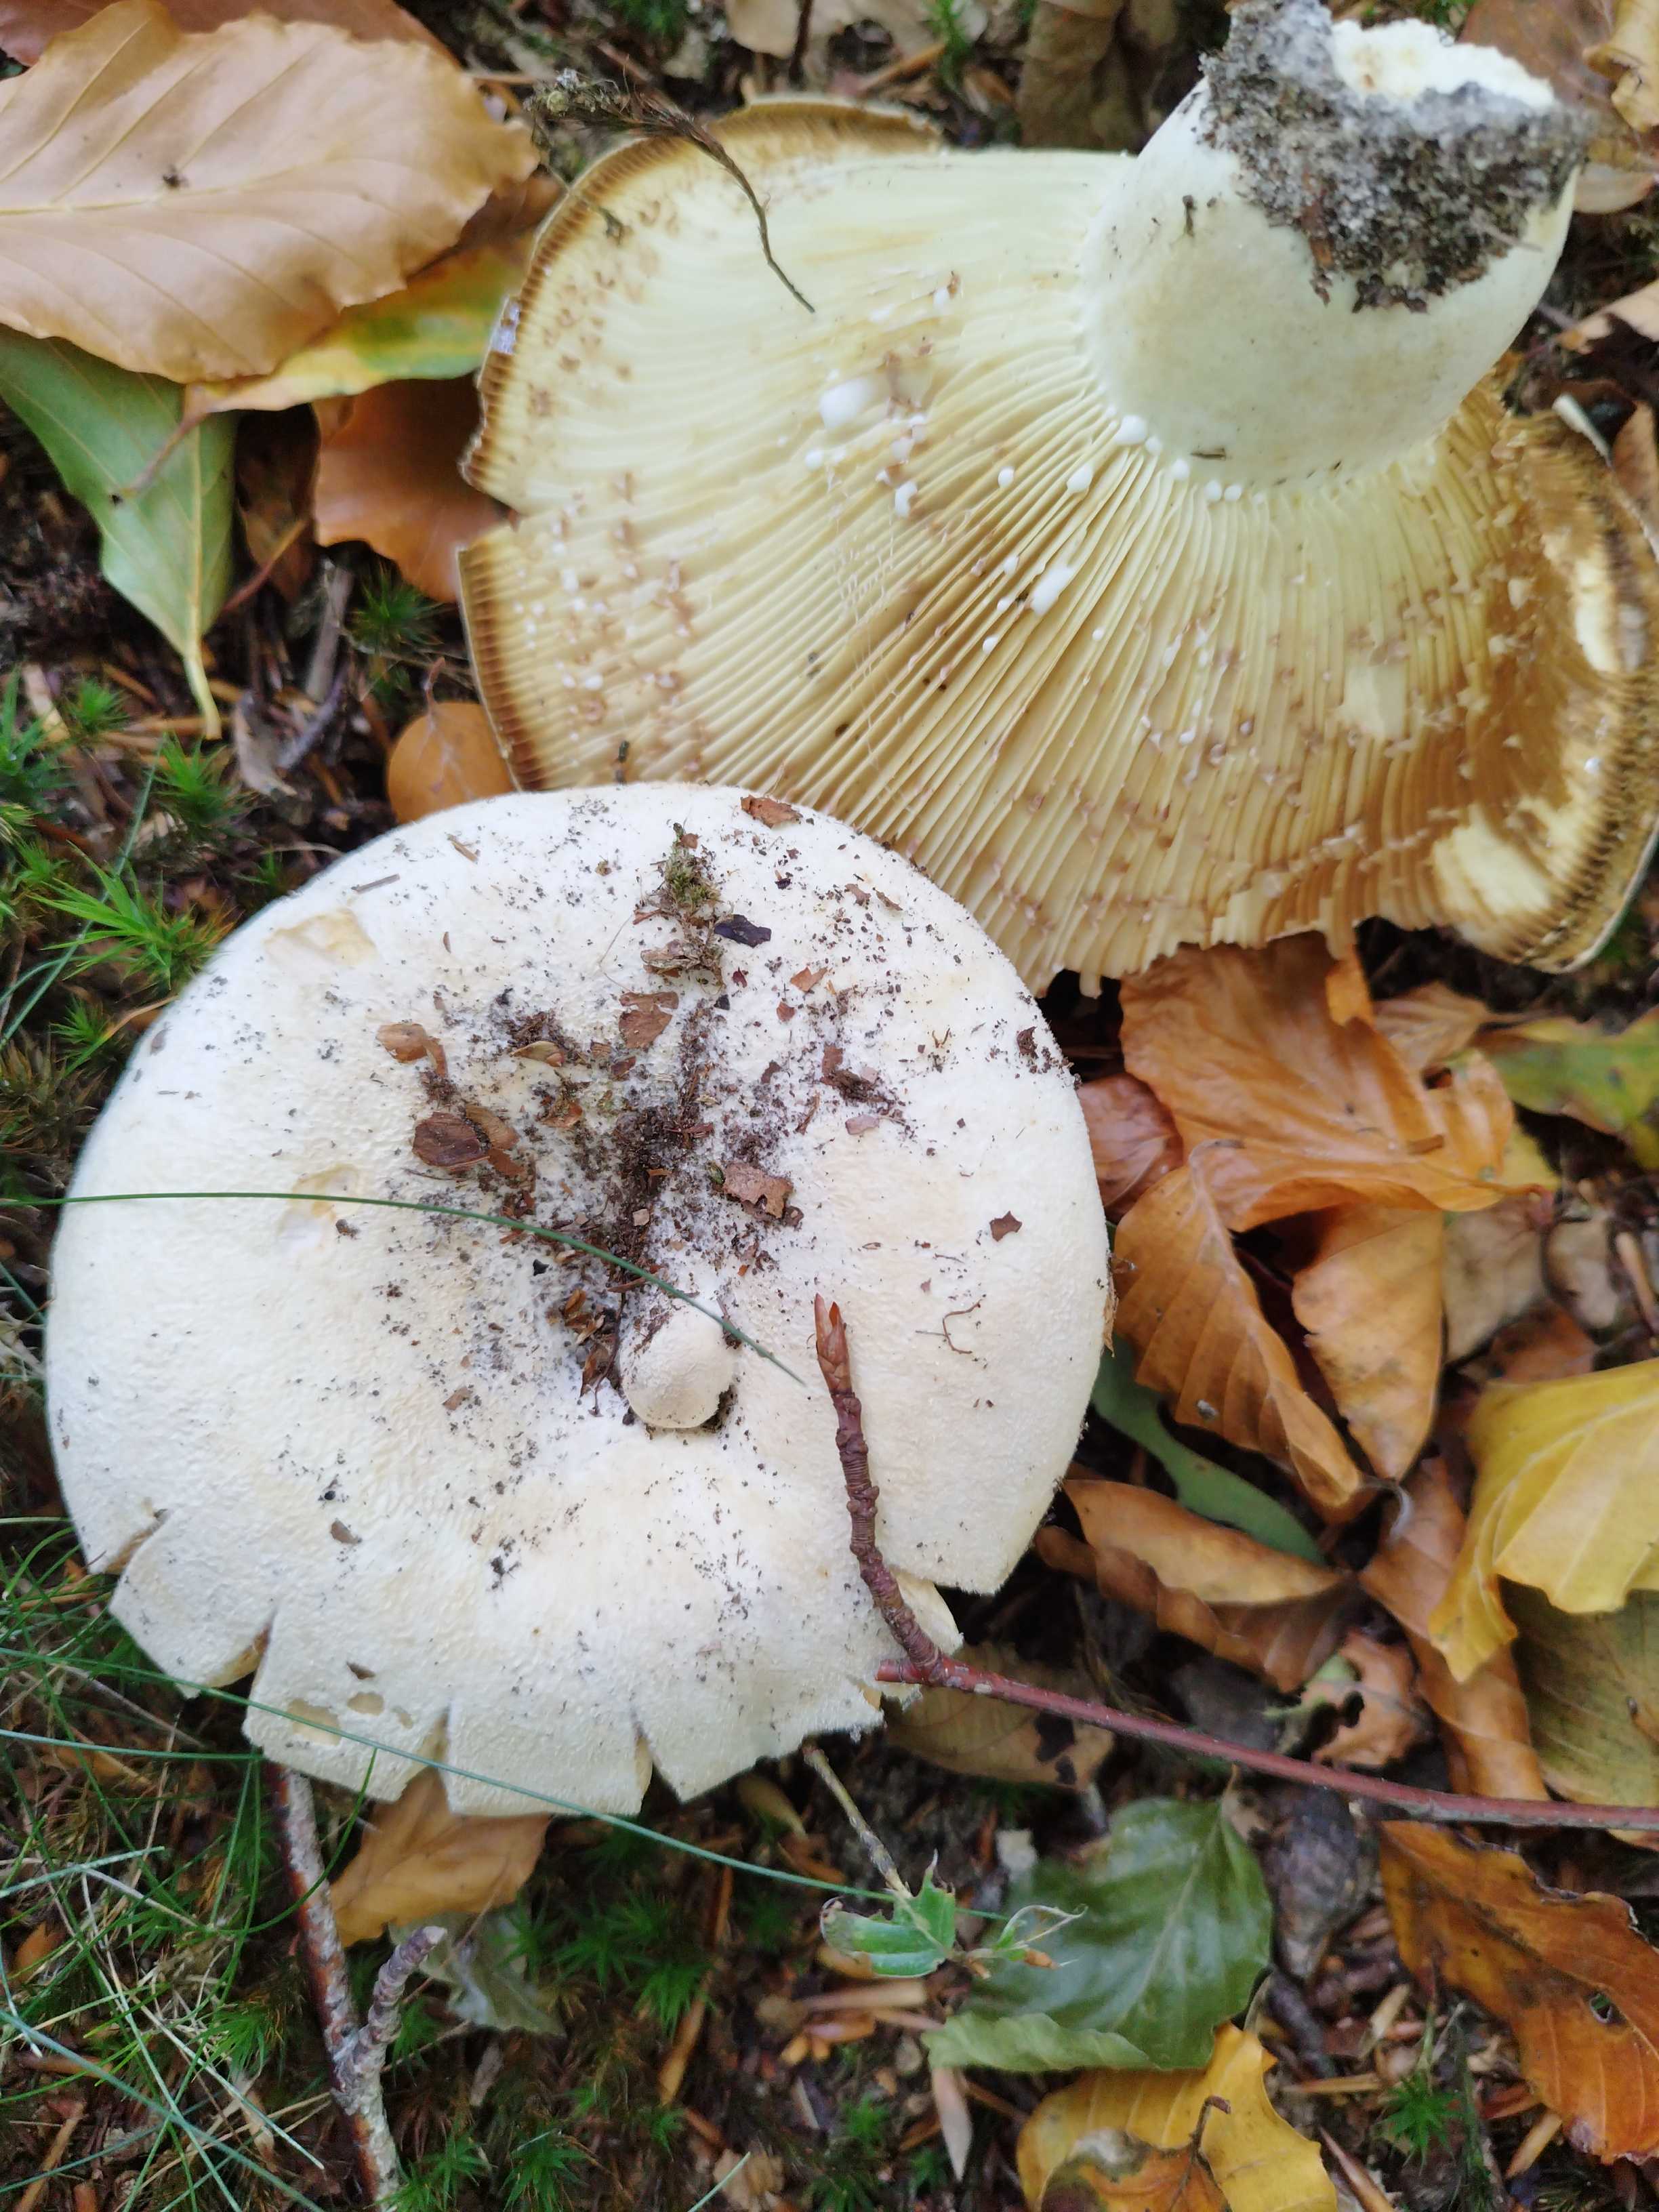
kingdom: Fungi
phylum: Basidiomycota
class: Agaricomycetes
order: Russulales
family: Russulaceae
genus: Lactifluus
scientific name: Lactifluus vellereus
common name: hvidfiltet mælkehat
